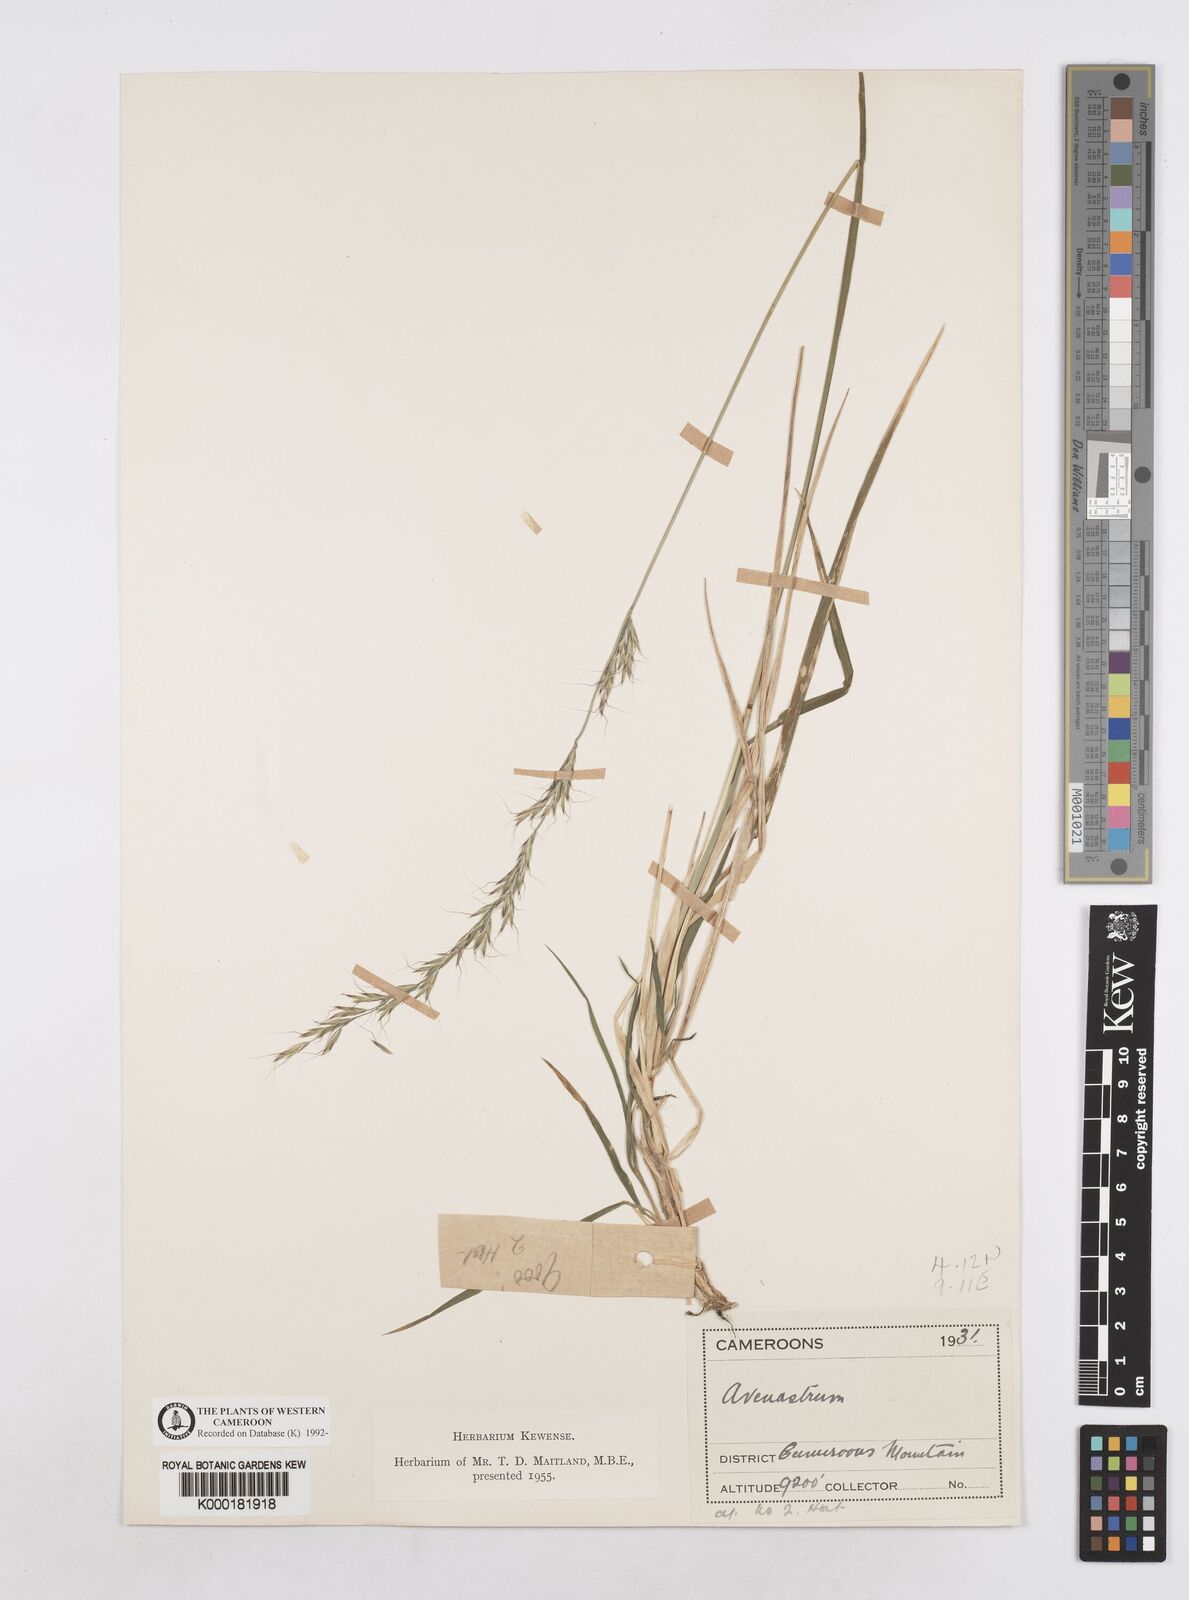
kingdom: Plantae
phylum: Tracheophyta
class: Liliopsida
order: Poales
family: Poaceae
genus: Trisetopsis
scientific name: Trisetopsis mannii
